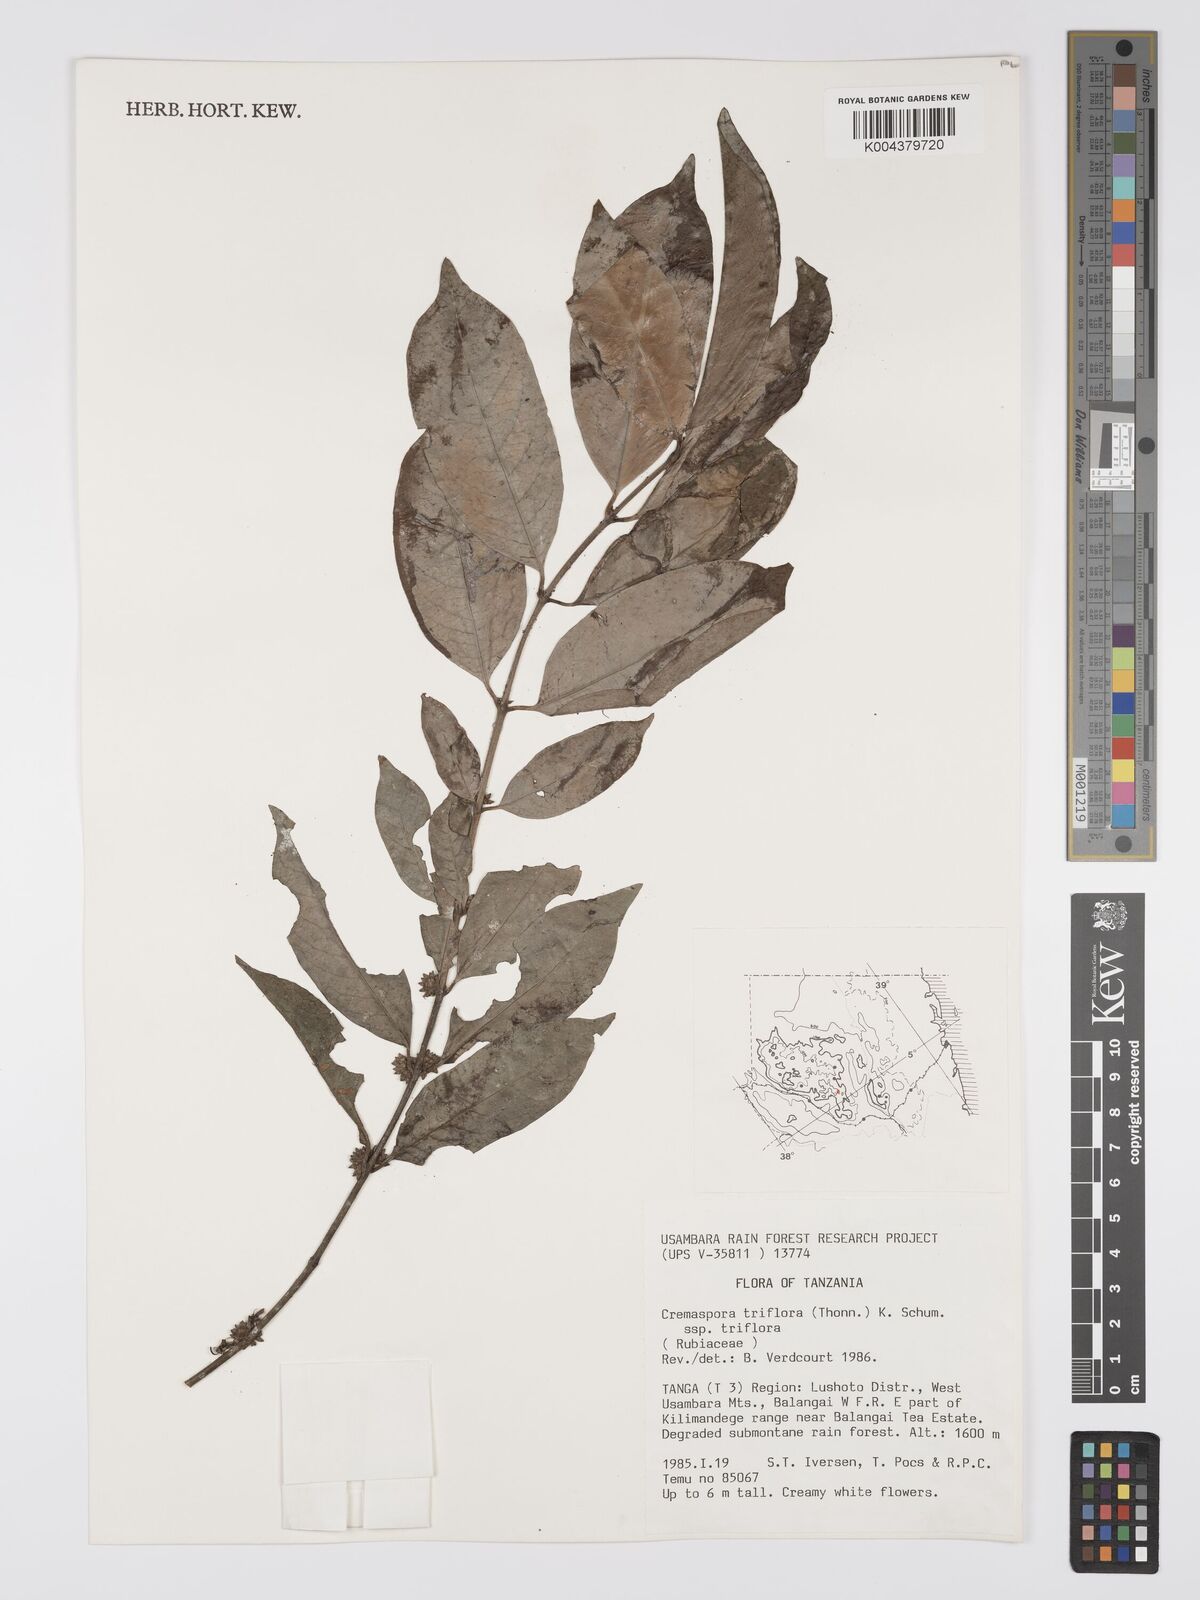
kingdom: Plantae
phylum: Tracheophyta
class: Magnoliopsida
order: Gentianales
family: Rubiaceae
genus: Cremaspora
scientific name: Cremaspora triflora
